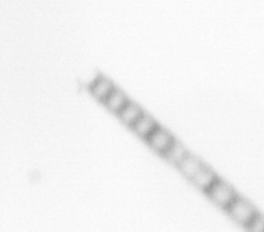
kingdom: Chromista
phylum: Ochrophyta
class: Bacillariophyceae
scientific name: Bacillariophyceae
